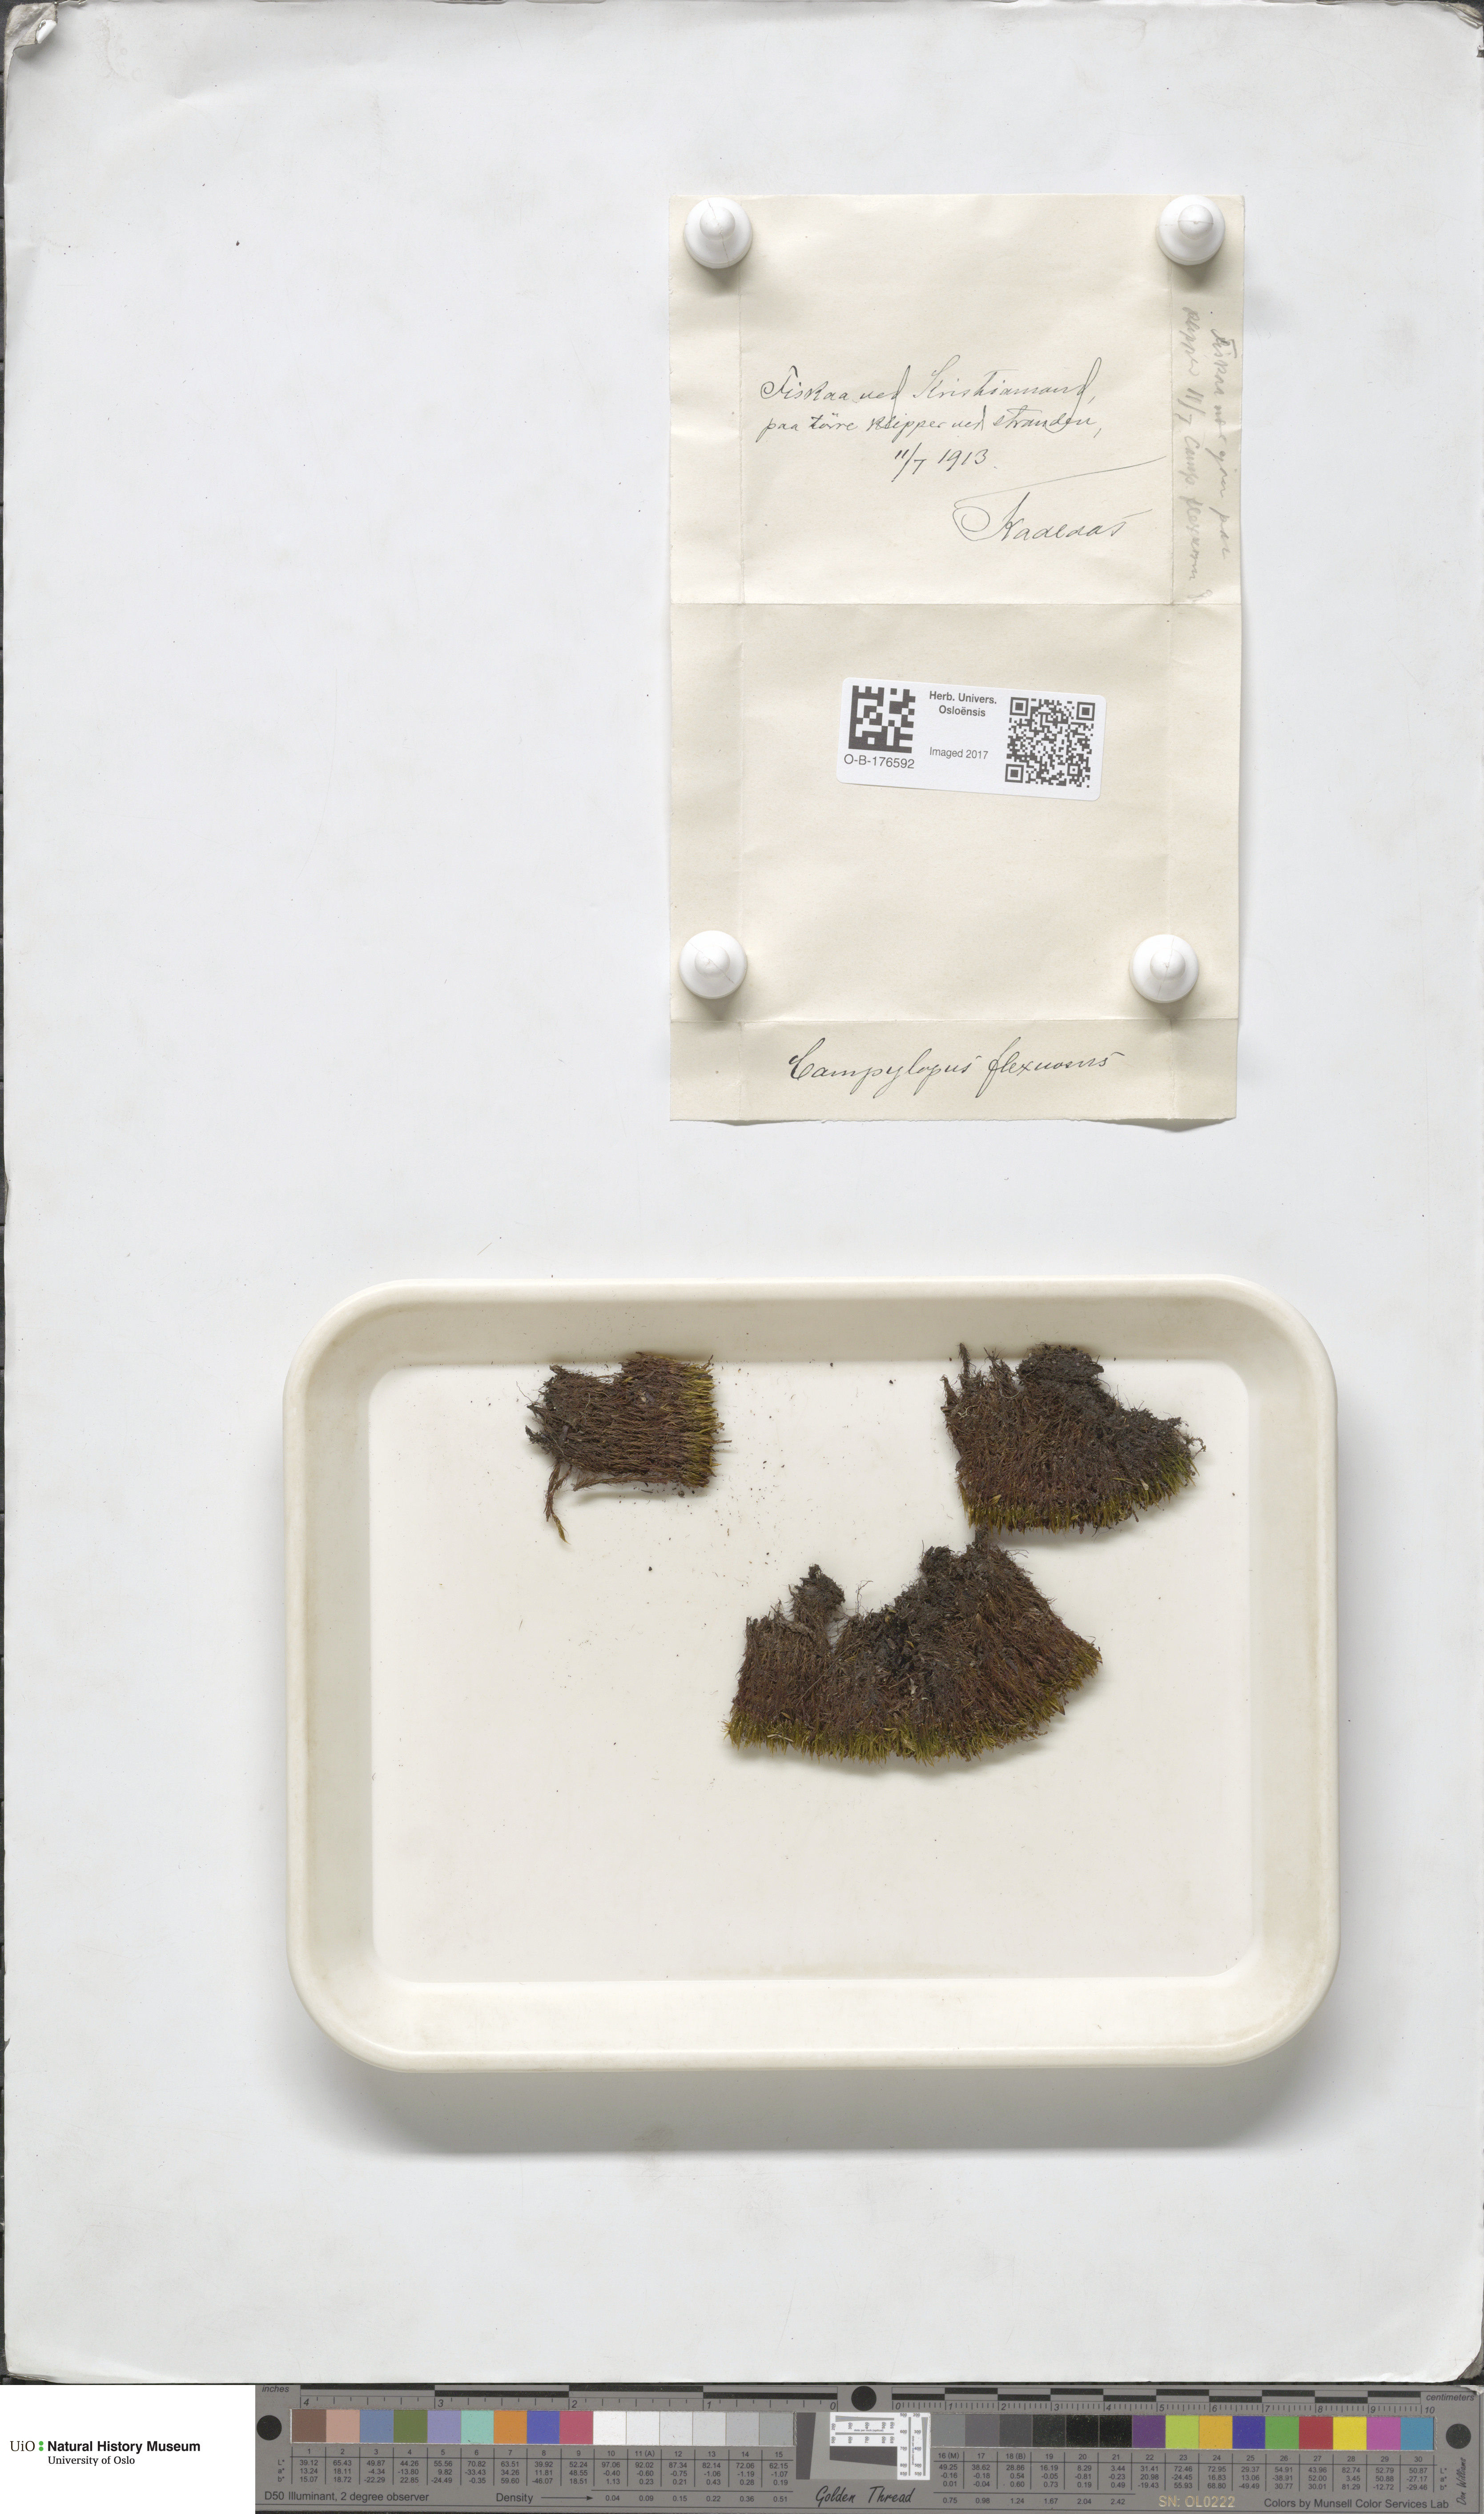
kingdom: Plantae
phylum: Bryophyta
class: Bryopsida
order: Dicranales
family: Leucobryaceae
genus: Campylopus
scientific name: Campylopus flexuosus
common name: Rusty swan-neck moss
